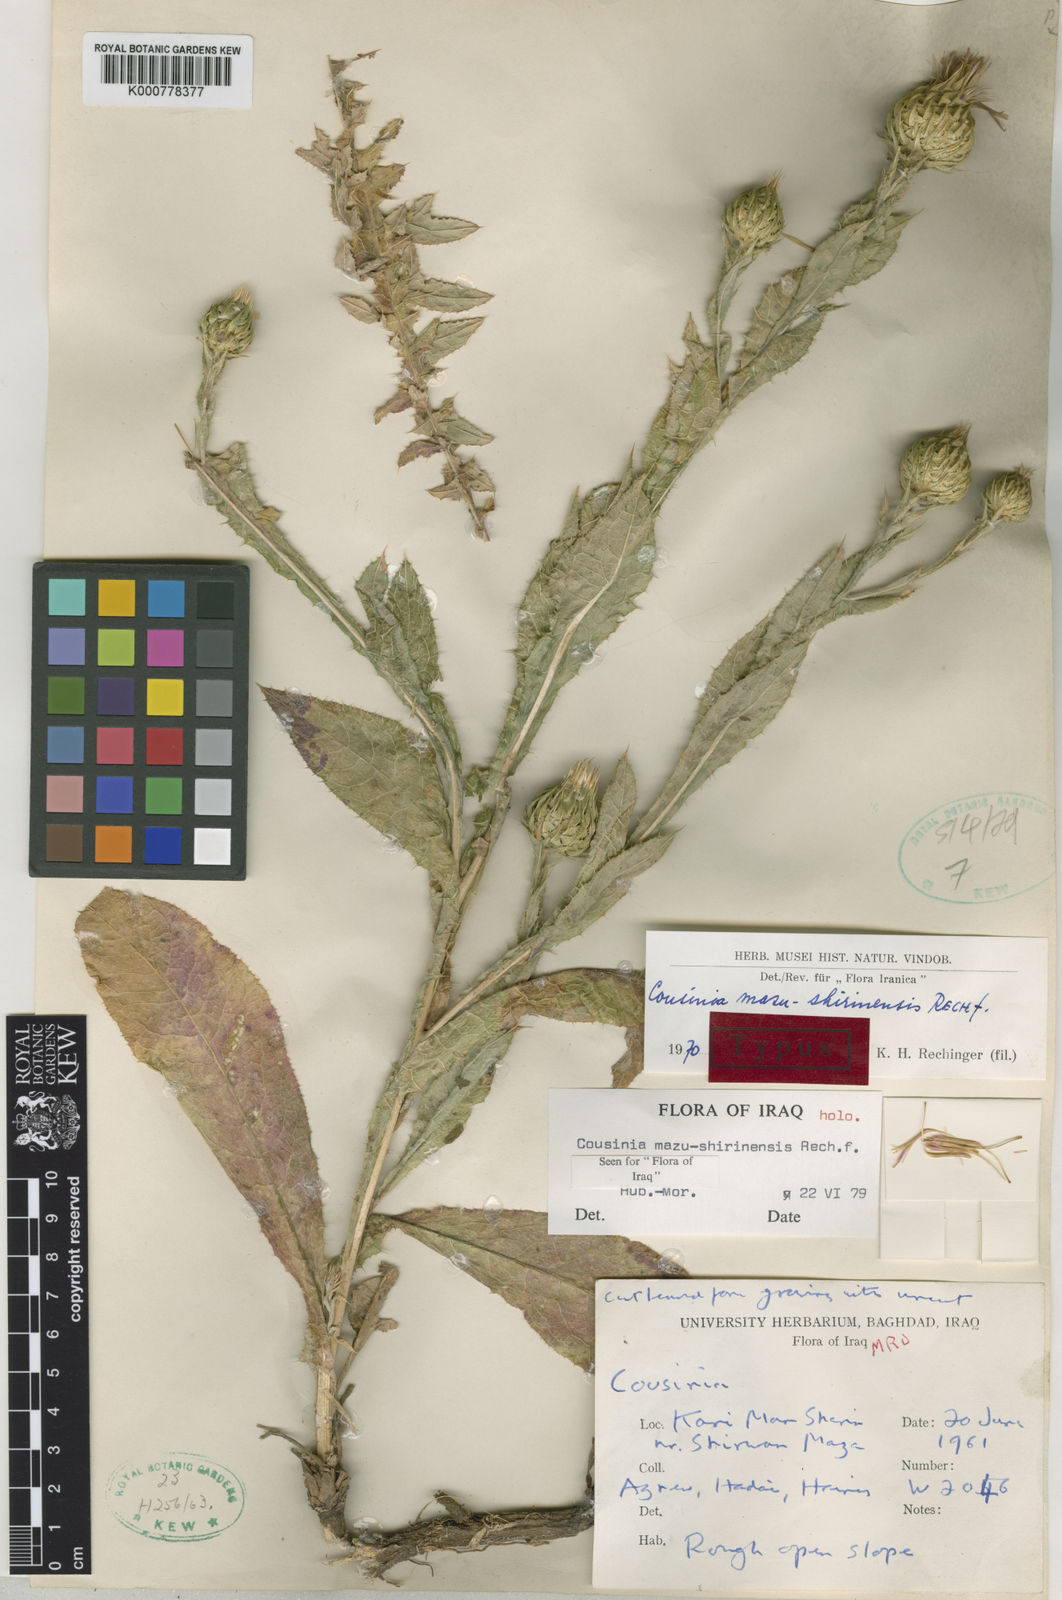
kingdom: Plantae
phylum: Tracheophyta
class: Magnoliopsida
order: Asterales
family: Asteraceae
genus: Cousinia
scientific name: Cousinia odontolepis
